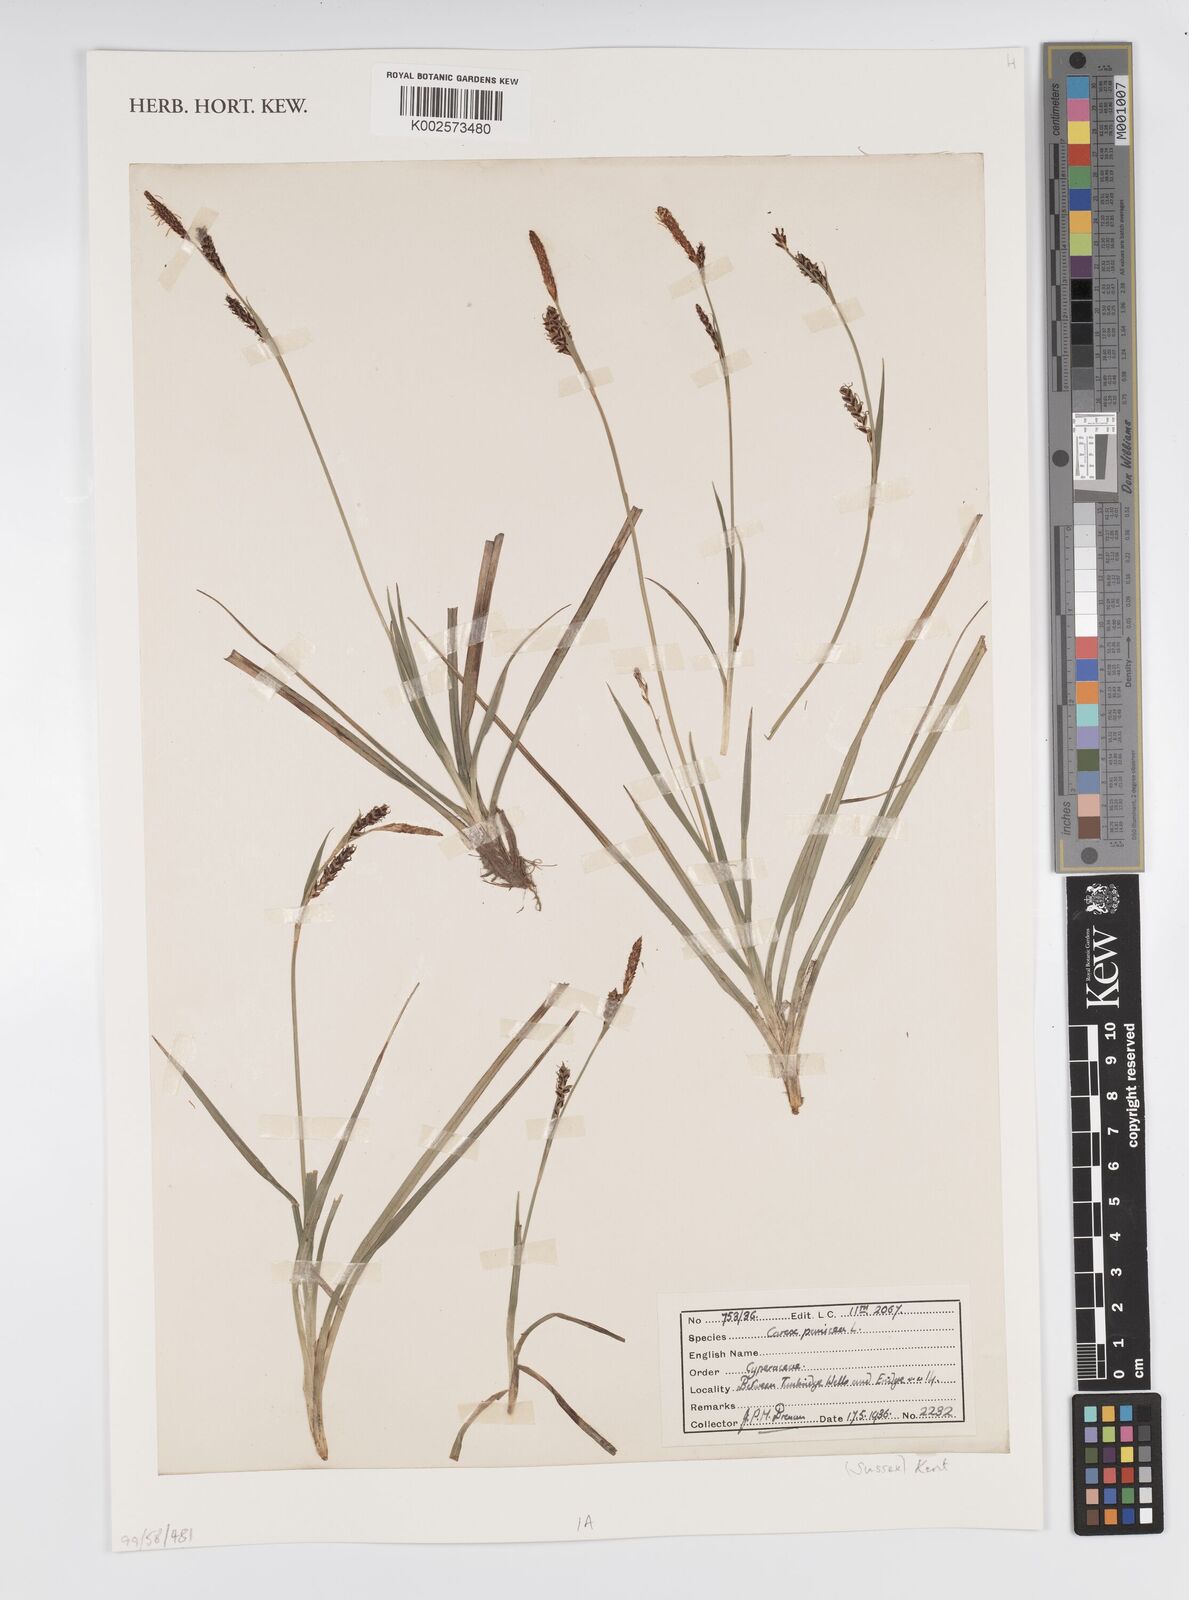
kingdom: Plantae
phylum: Tracheophyta
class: Liliopsida
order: Poales
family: Cyperaceae
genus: Carex
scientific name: Carex panicea
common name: Carnation sedge
